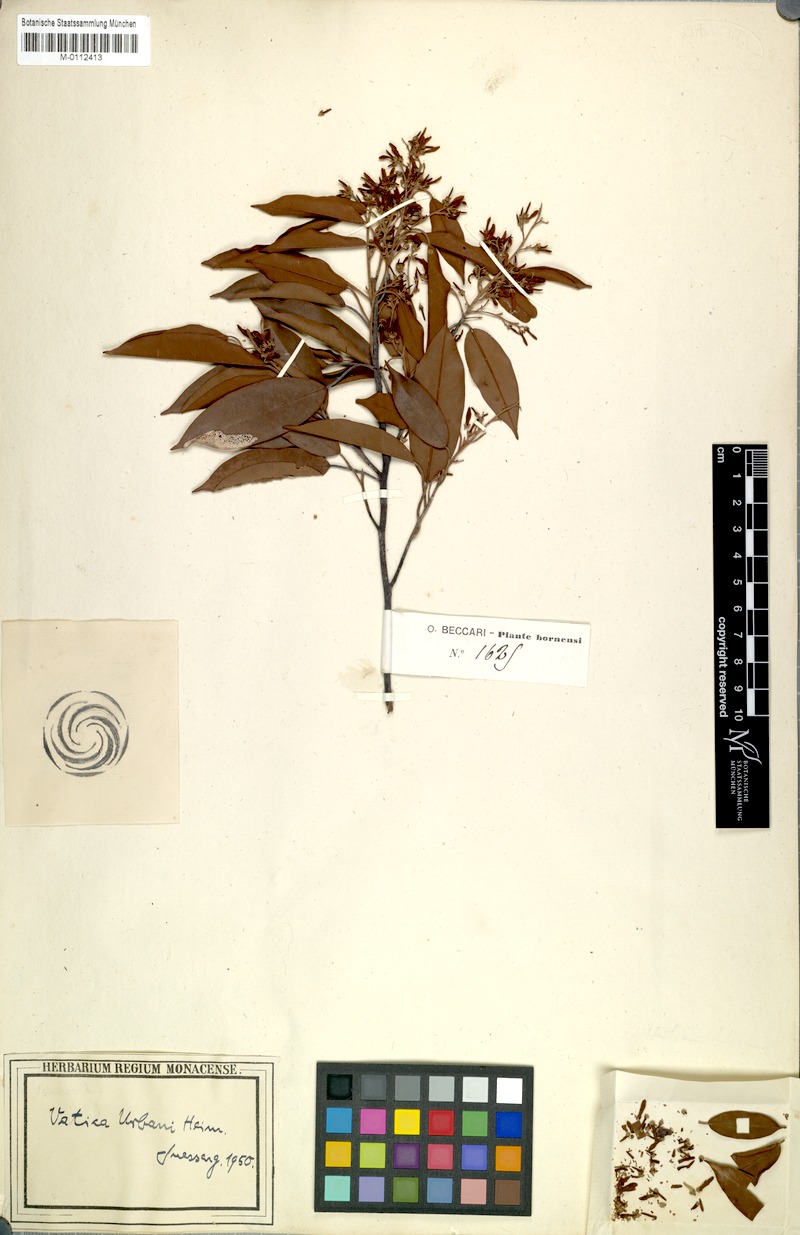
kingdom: Plantae
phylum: Tracheophyta
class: Magnoliopsida
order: Malvales
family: Dipterocarpaceae
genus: Vatica
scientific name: Vatica borneensis
